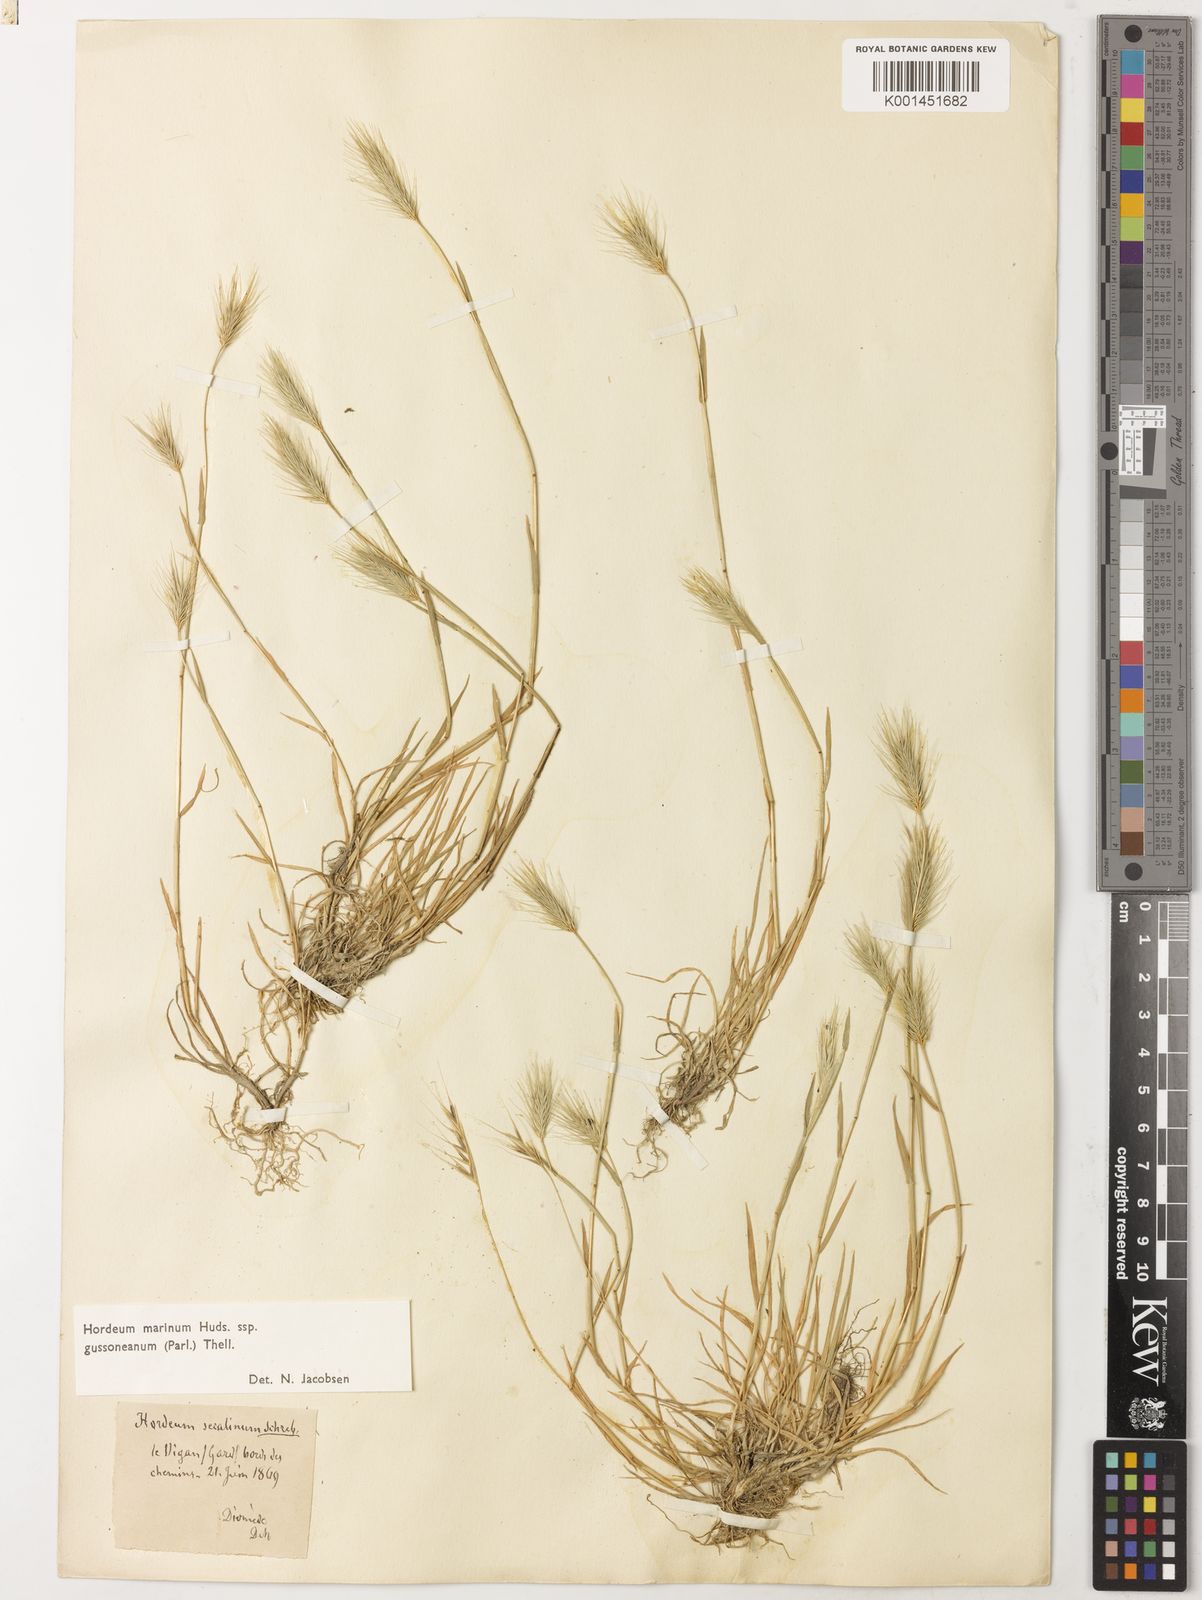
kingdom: Plantae
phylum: Tracheophyta
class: Liliopsida
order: Poales
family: Poaceae
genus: Hordeum
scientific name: Hordeum marinum
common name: Sea barley
